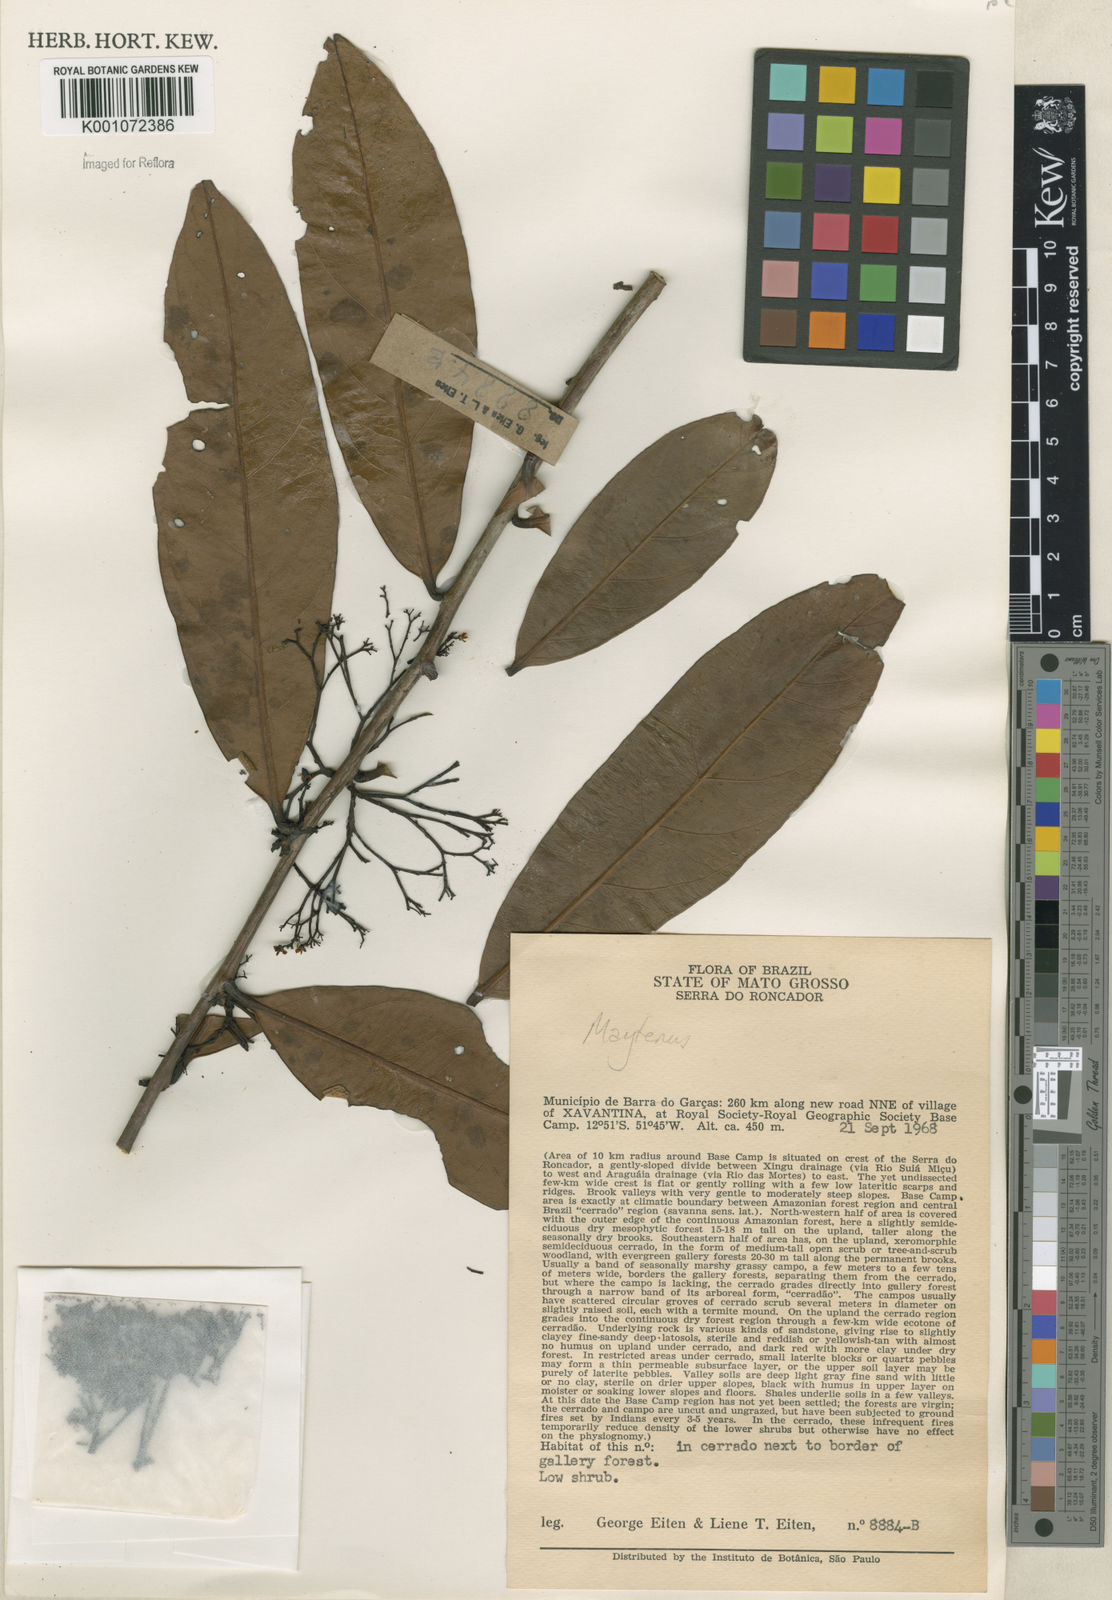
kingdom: Plantae
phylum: Tracheophyta
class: Magnoliopsida
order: Celastrales
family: Celastraceae
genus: Maytenus
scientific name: Maytenus
